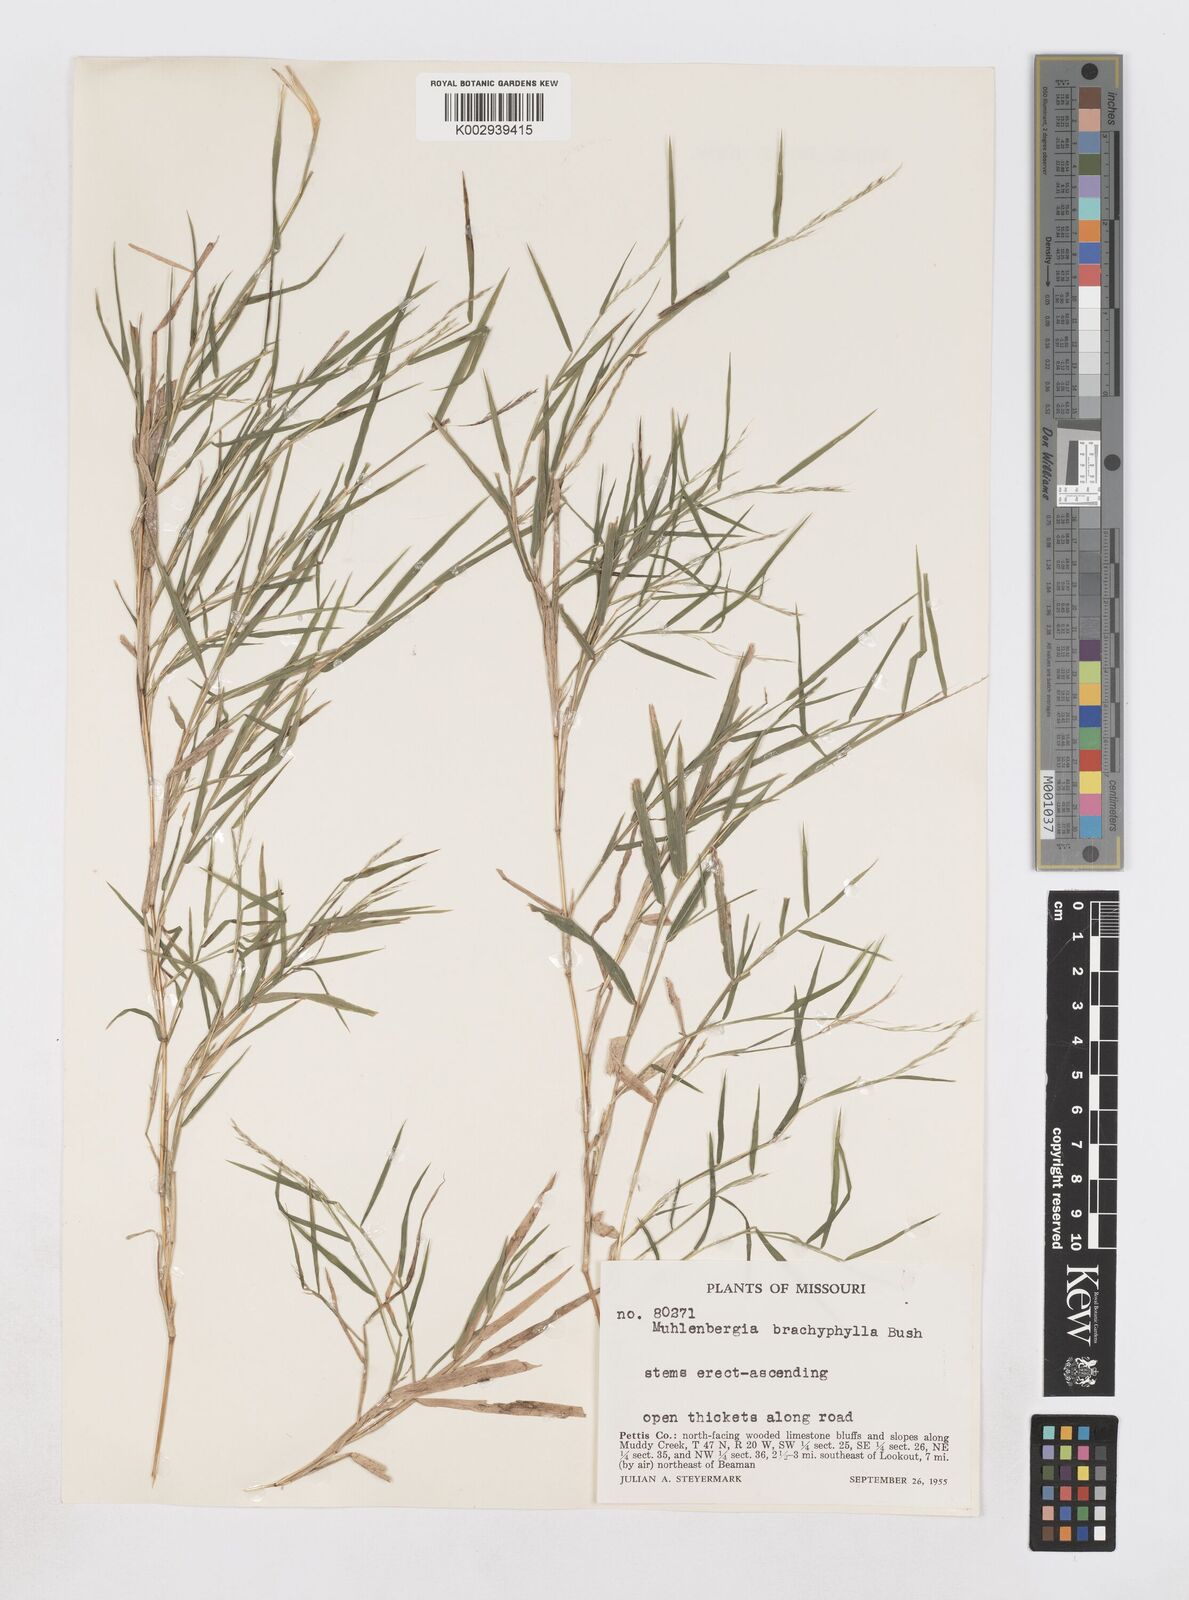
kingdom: Plantae
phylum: Tracheophyta
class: Liliopsida
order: Poales
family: Poaceae
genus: Muhlenbergia
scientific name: Muhlenbergia bushii
